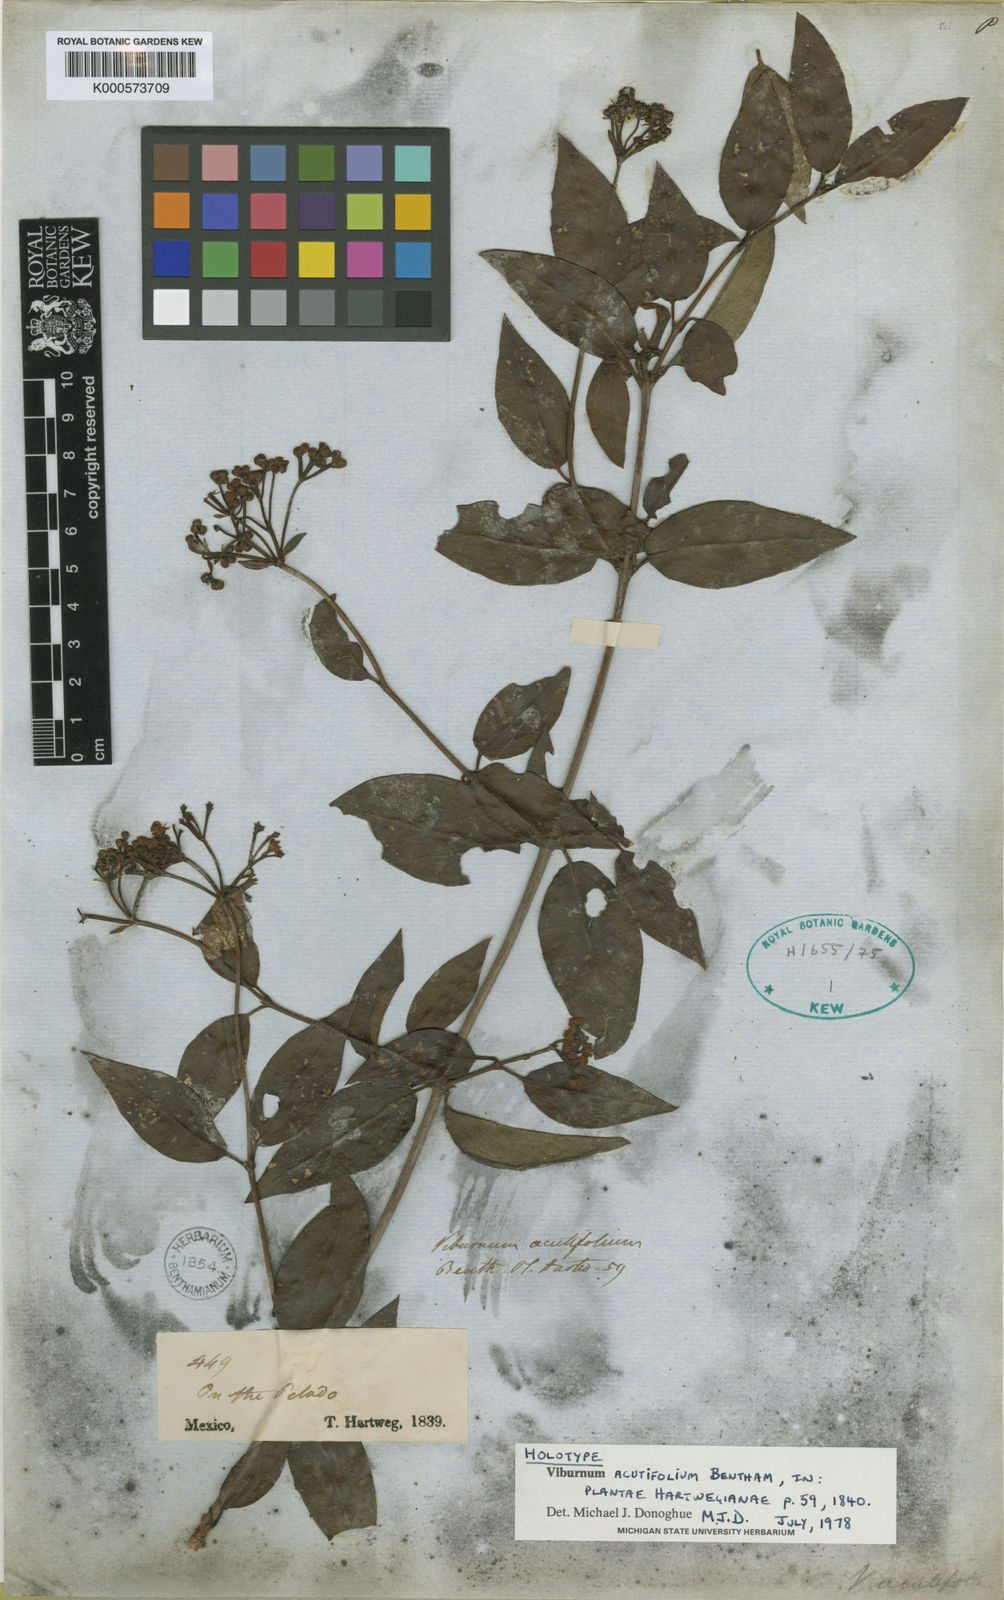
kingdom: Plantae
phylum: Tracheophyta
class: Magnoliopsida
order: Dipsacales
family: Viburnaceae
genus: Viburnum
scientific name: Viburnum acutifolium
